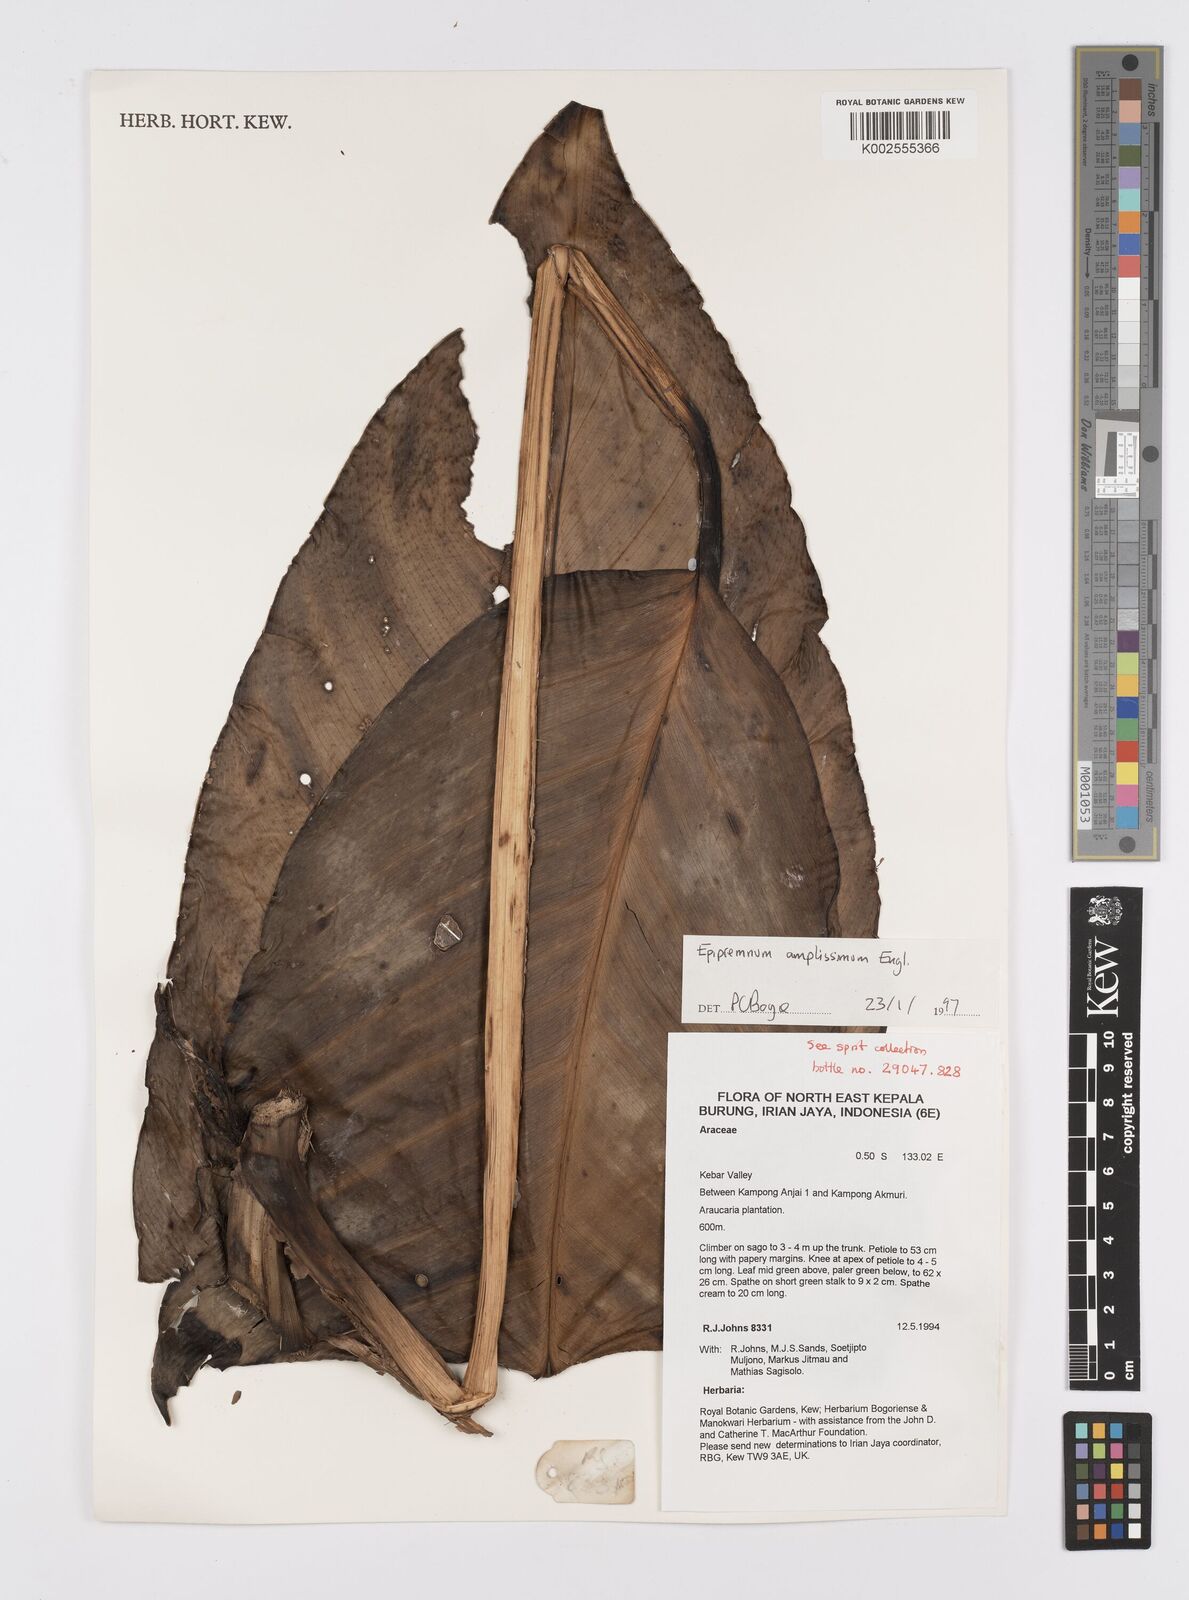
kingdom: Plantae
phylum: Tracheophyta
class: Liliopsida
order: Alismatales
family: Araceae
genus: Epipremnum
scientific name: Epipremnum amplissimum
